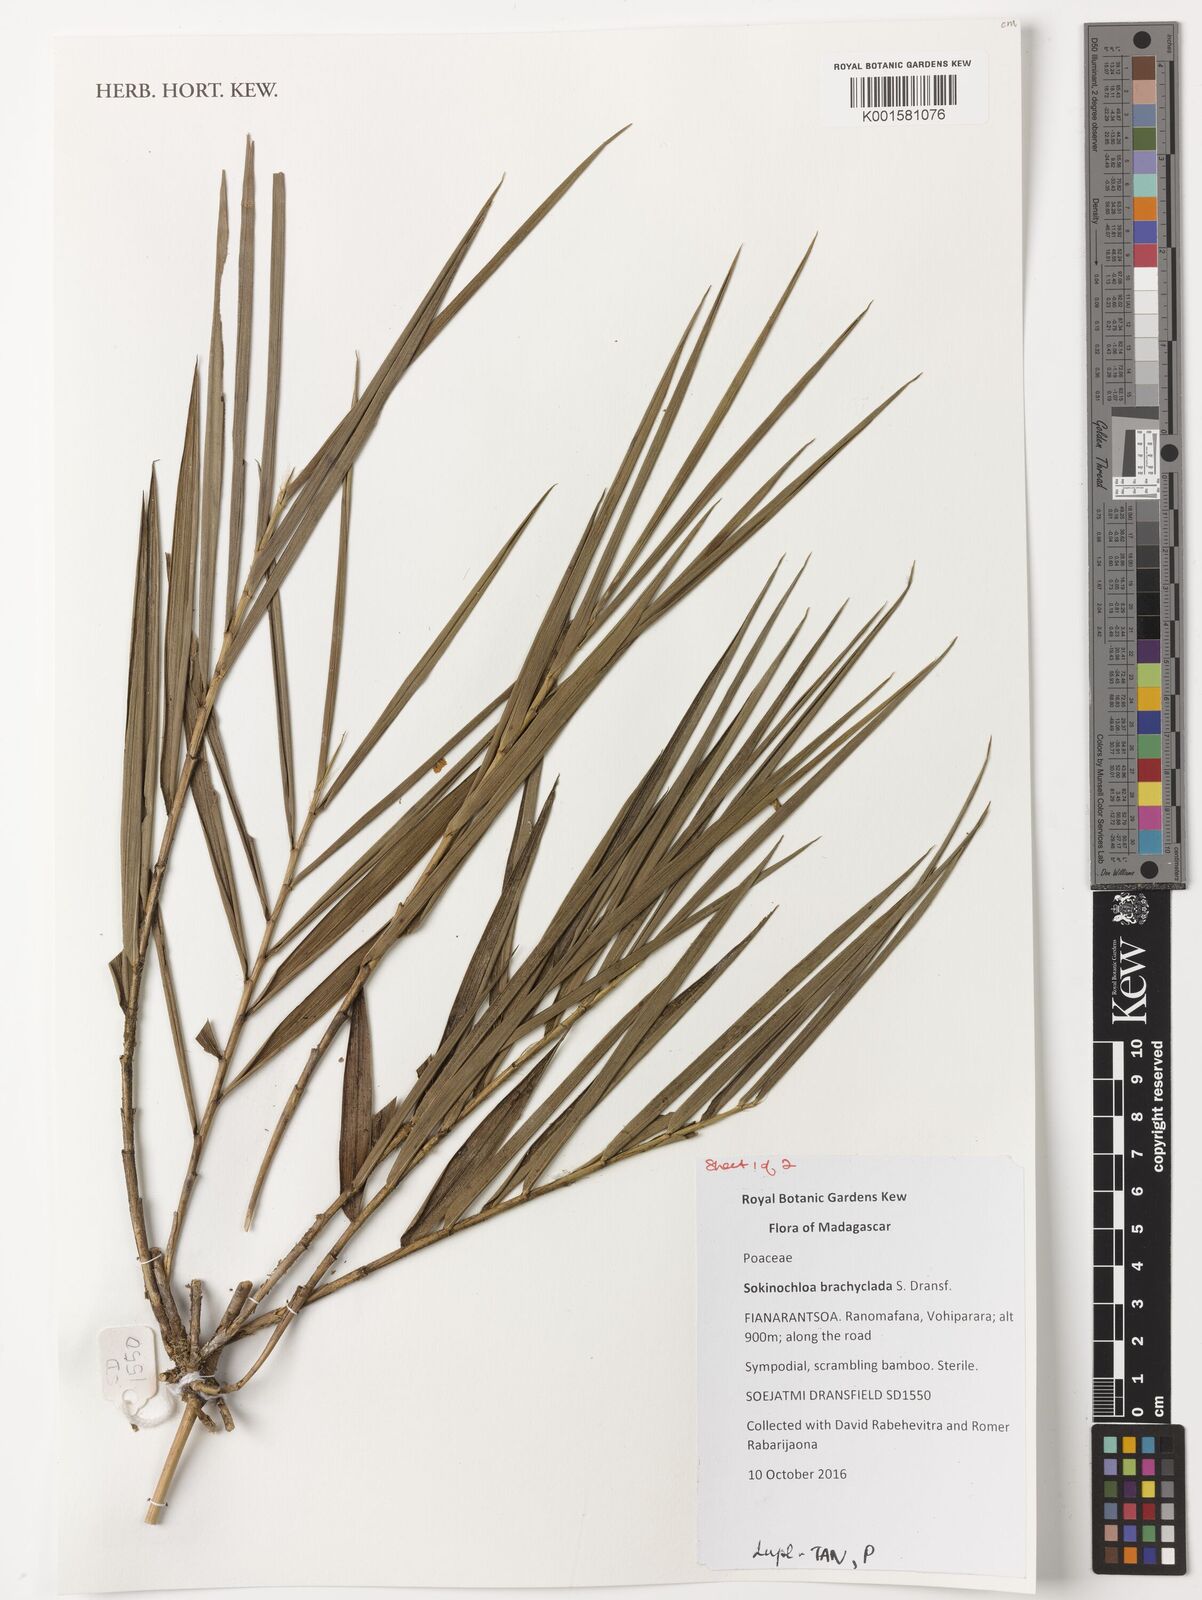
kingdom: Plantae
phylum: Tracheophyta
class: Liliopsida
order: Poales
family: Poaceae
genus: Sokinochloa
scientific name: Sokinochloa brachyclada
